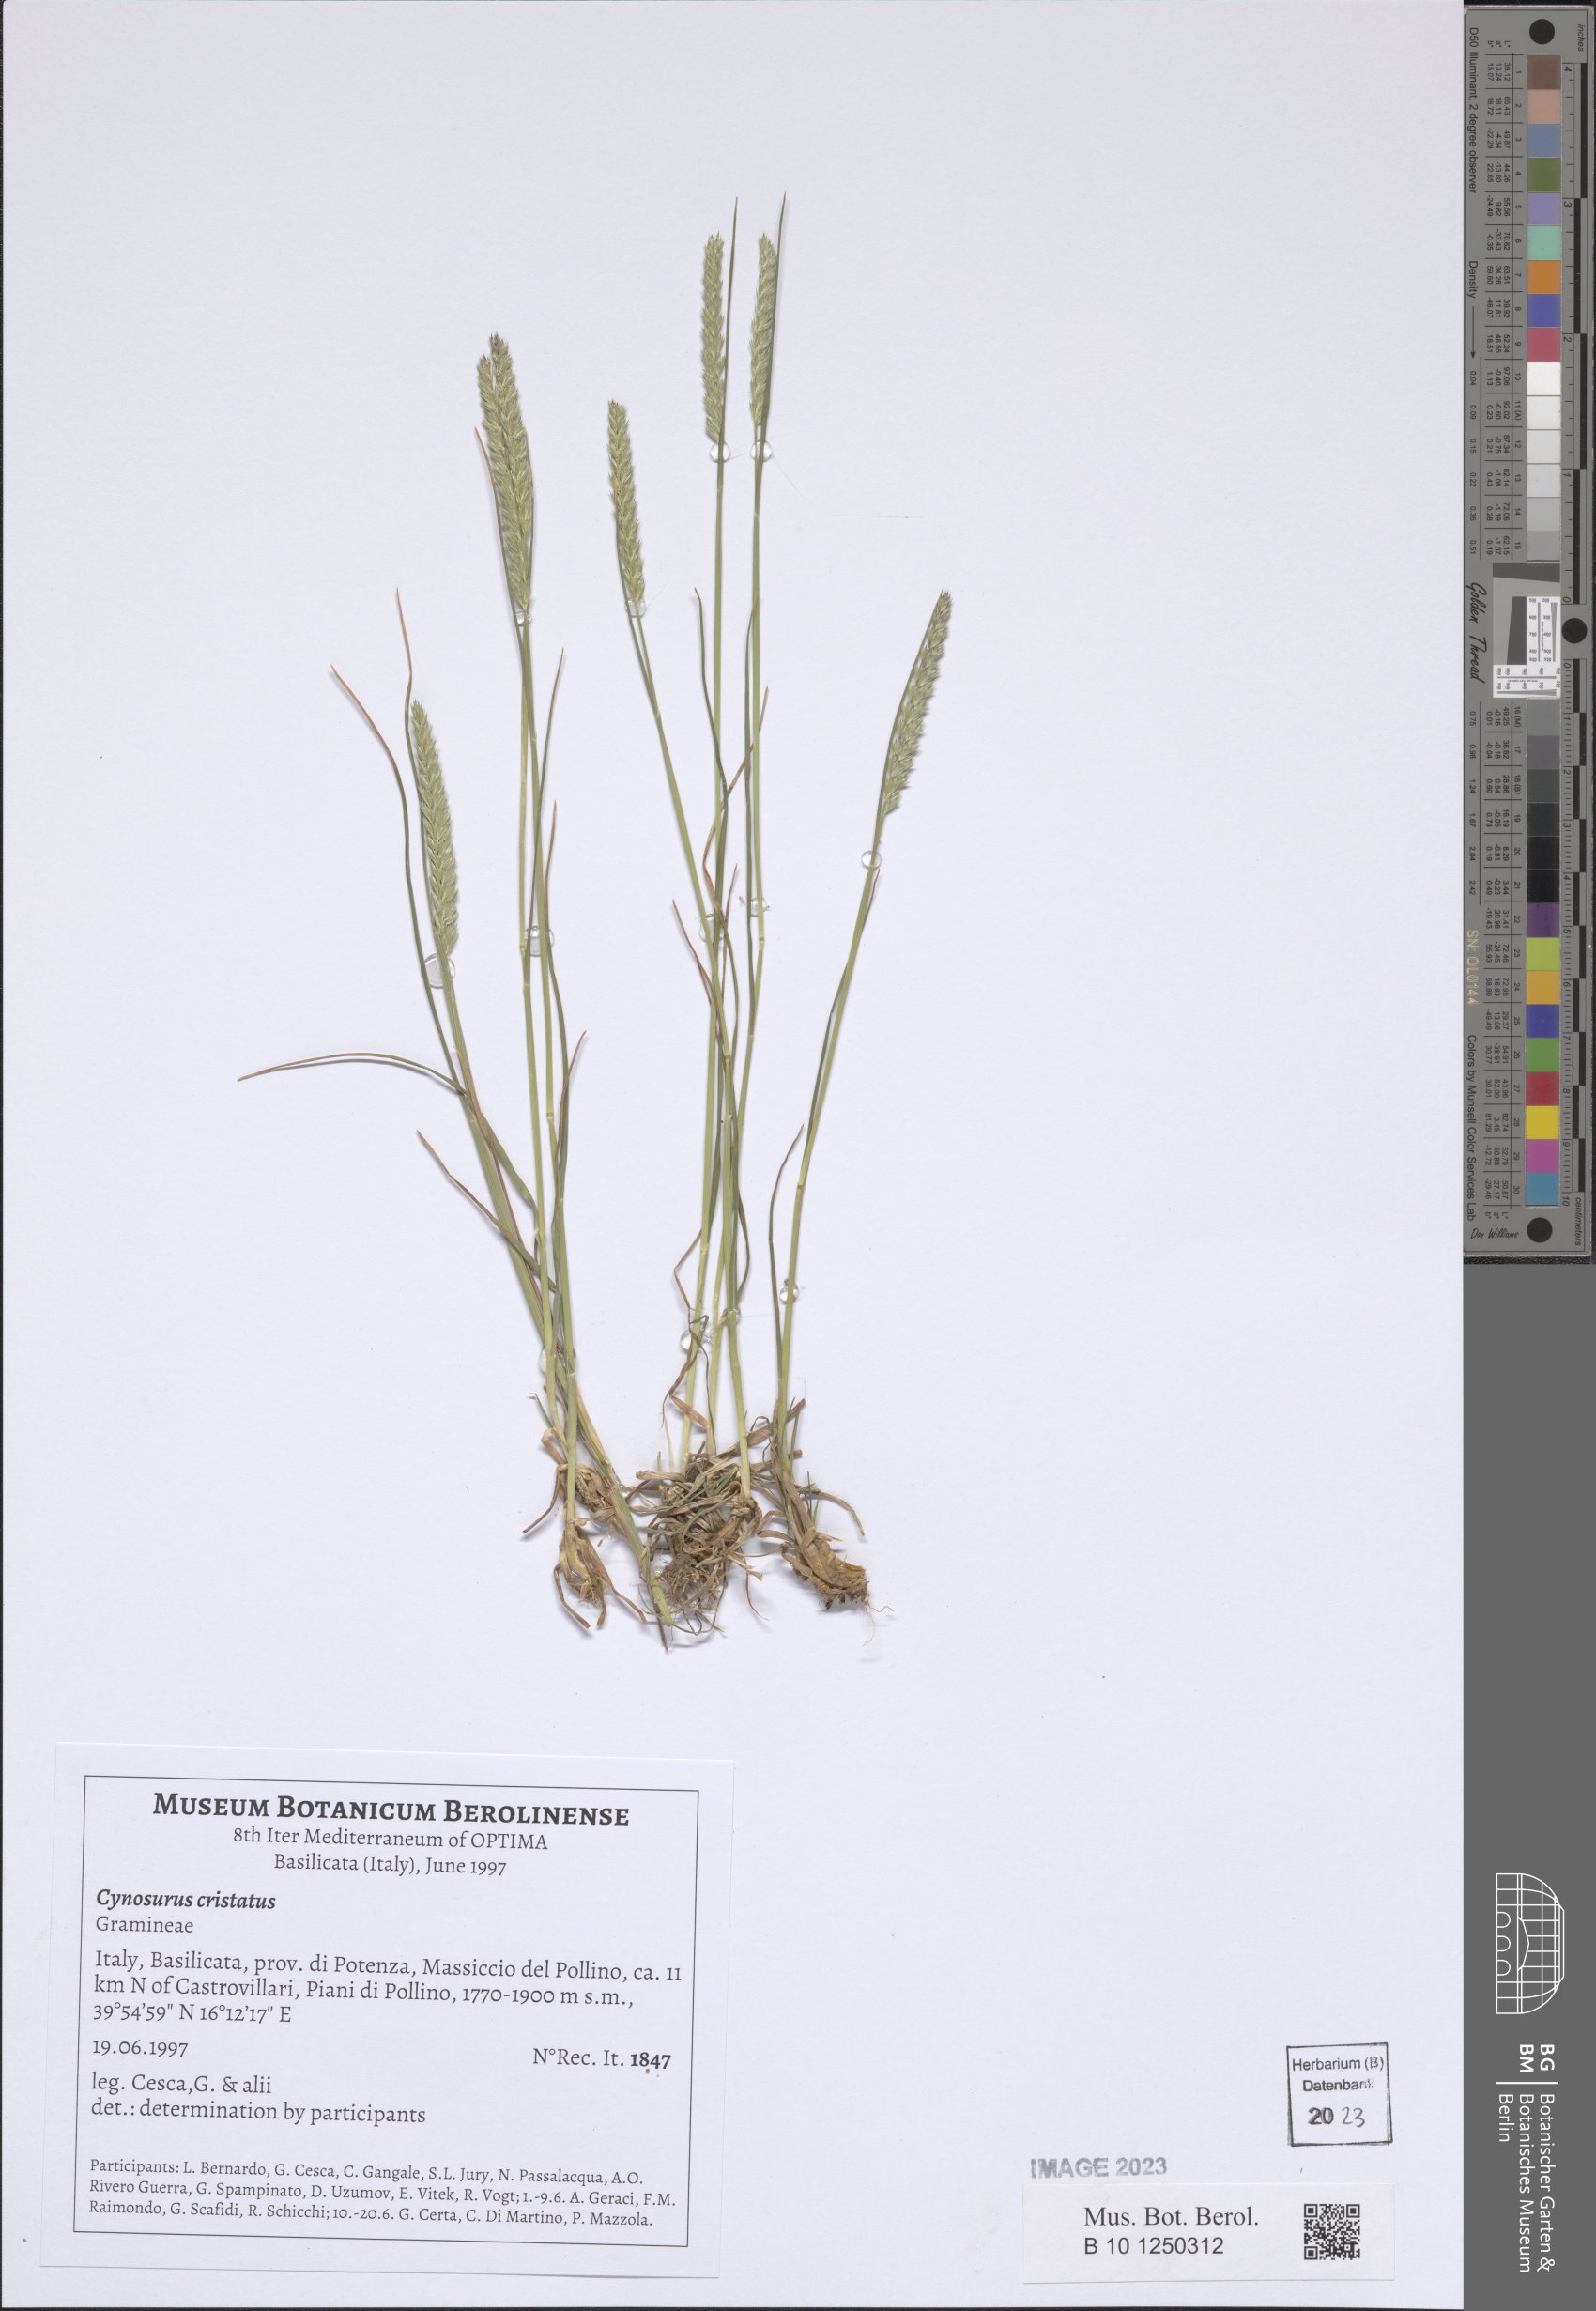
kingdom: Plantae
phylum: Tracheophyta
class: Liliopsida
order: Poales
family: Poaceae
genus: Cynosurus
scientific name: Cynosurus cristatus
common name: Crested dog's-tail
